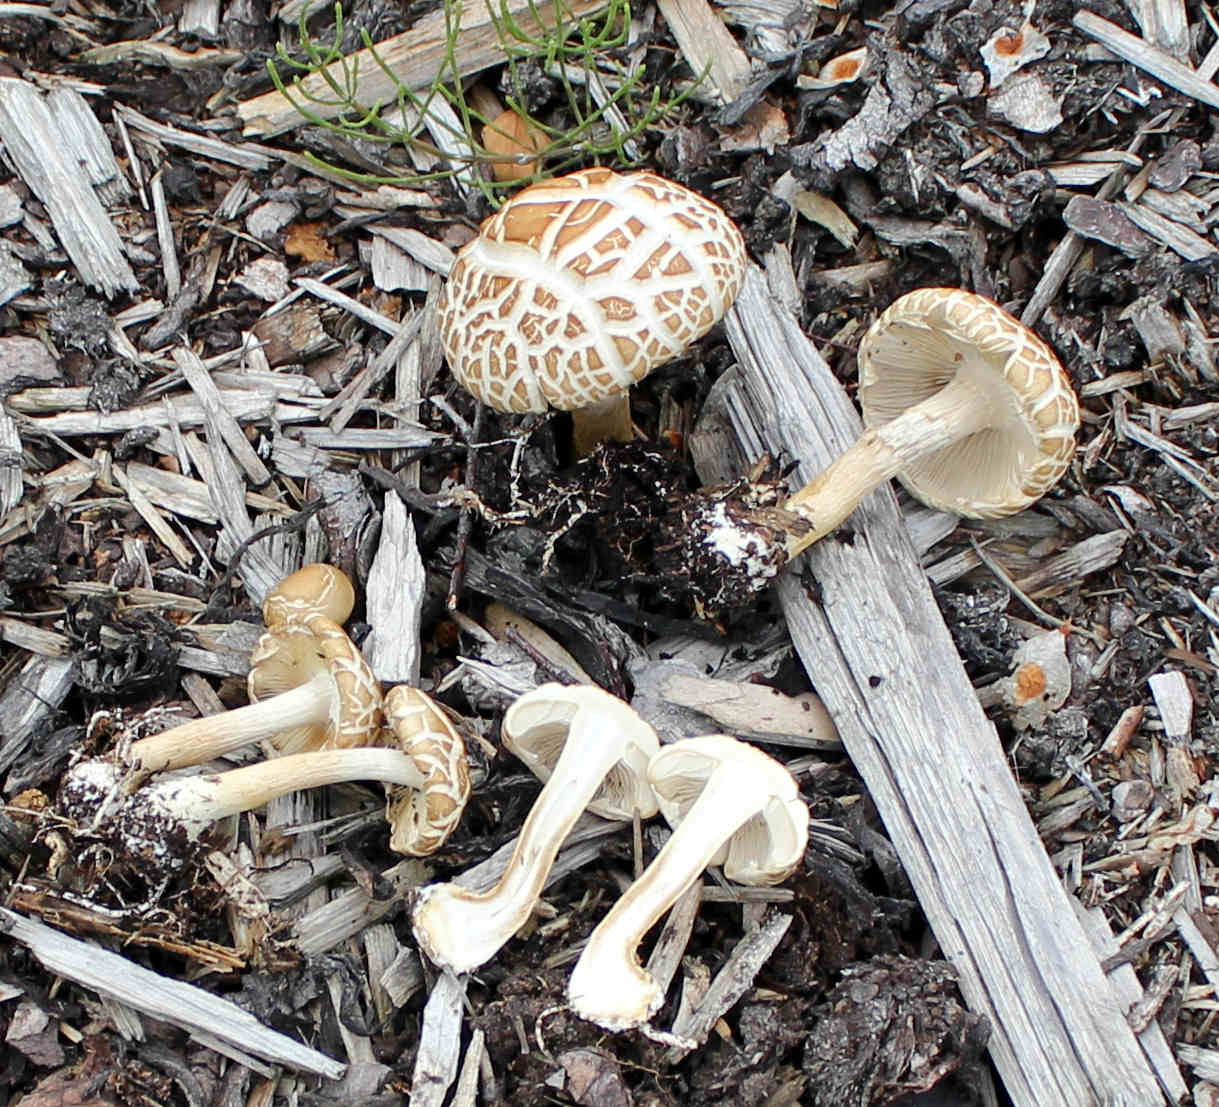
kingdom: Fungi
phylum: Basidiomycota
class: Agaricomycetes
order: Agaricales
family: Strophariaceae
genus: Agrocybe
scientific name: Agrocybe praecox
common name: tidlig agerhat
